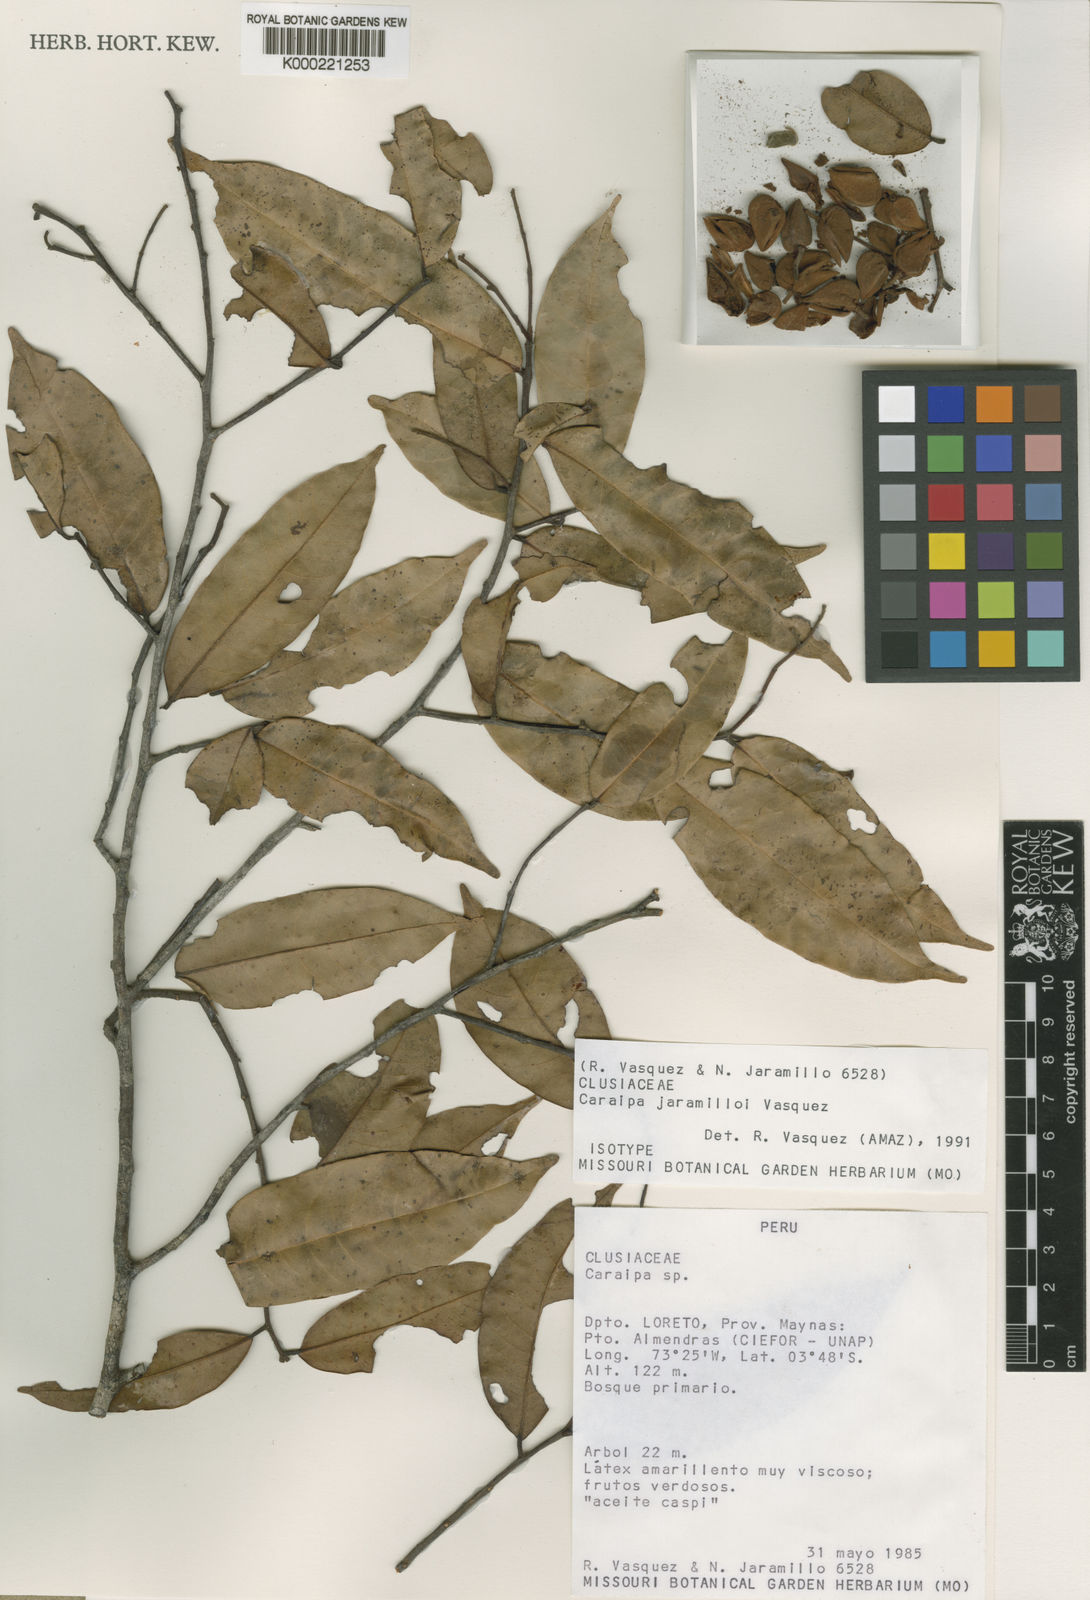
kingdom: Plantae
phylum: Tracheophyta
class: Magnoliopsida
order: Malpighiales
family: Calophyllaceae
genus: Caraipa
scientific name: Caraipa
